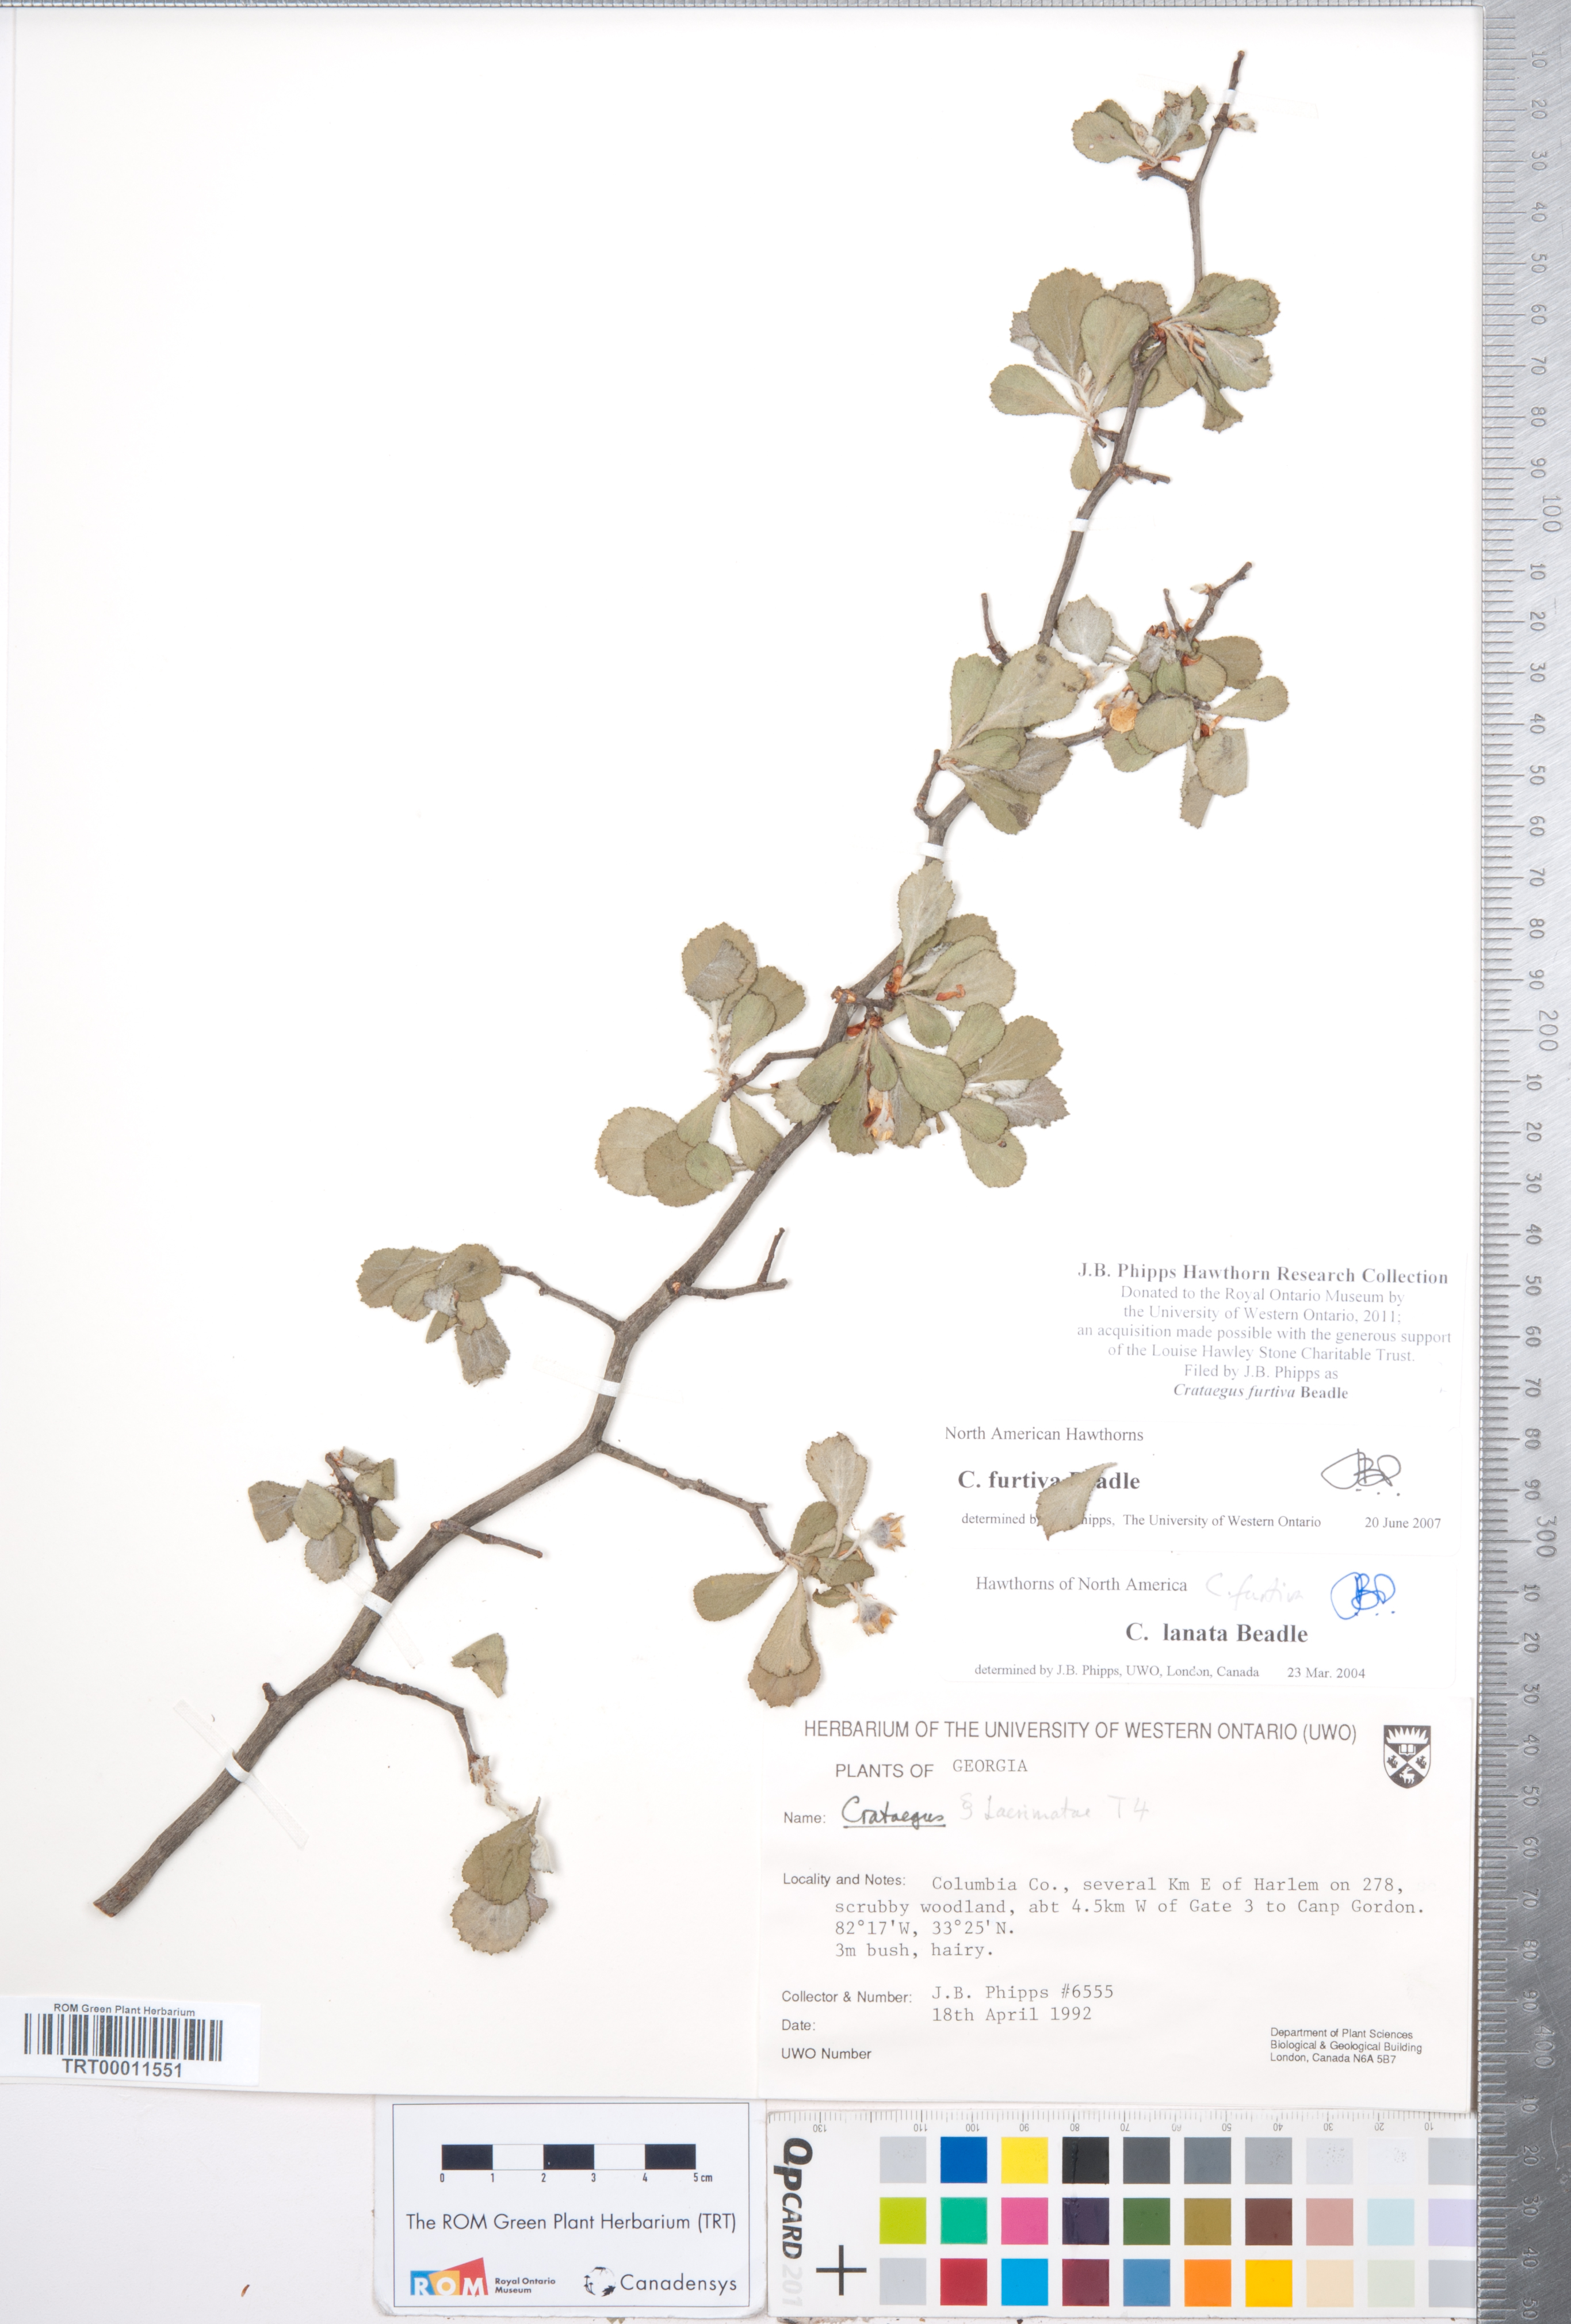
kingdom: Plantae
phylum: Tracheophyta
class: Magnoliopsida
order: Rosales
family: Rosaceae
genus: Crataegus
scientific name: Crataegus senta
